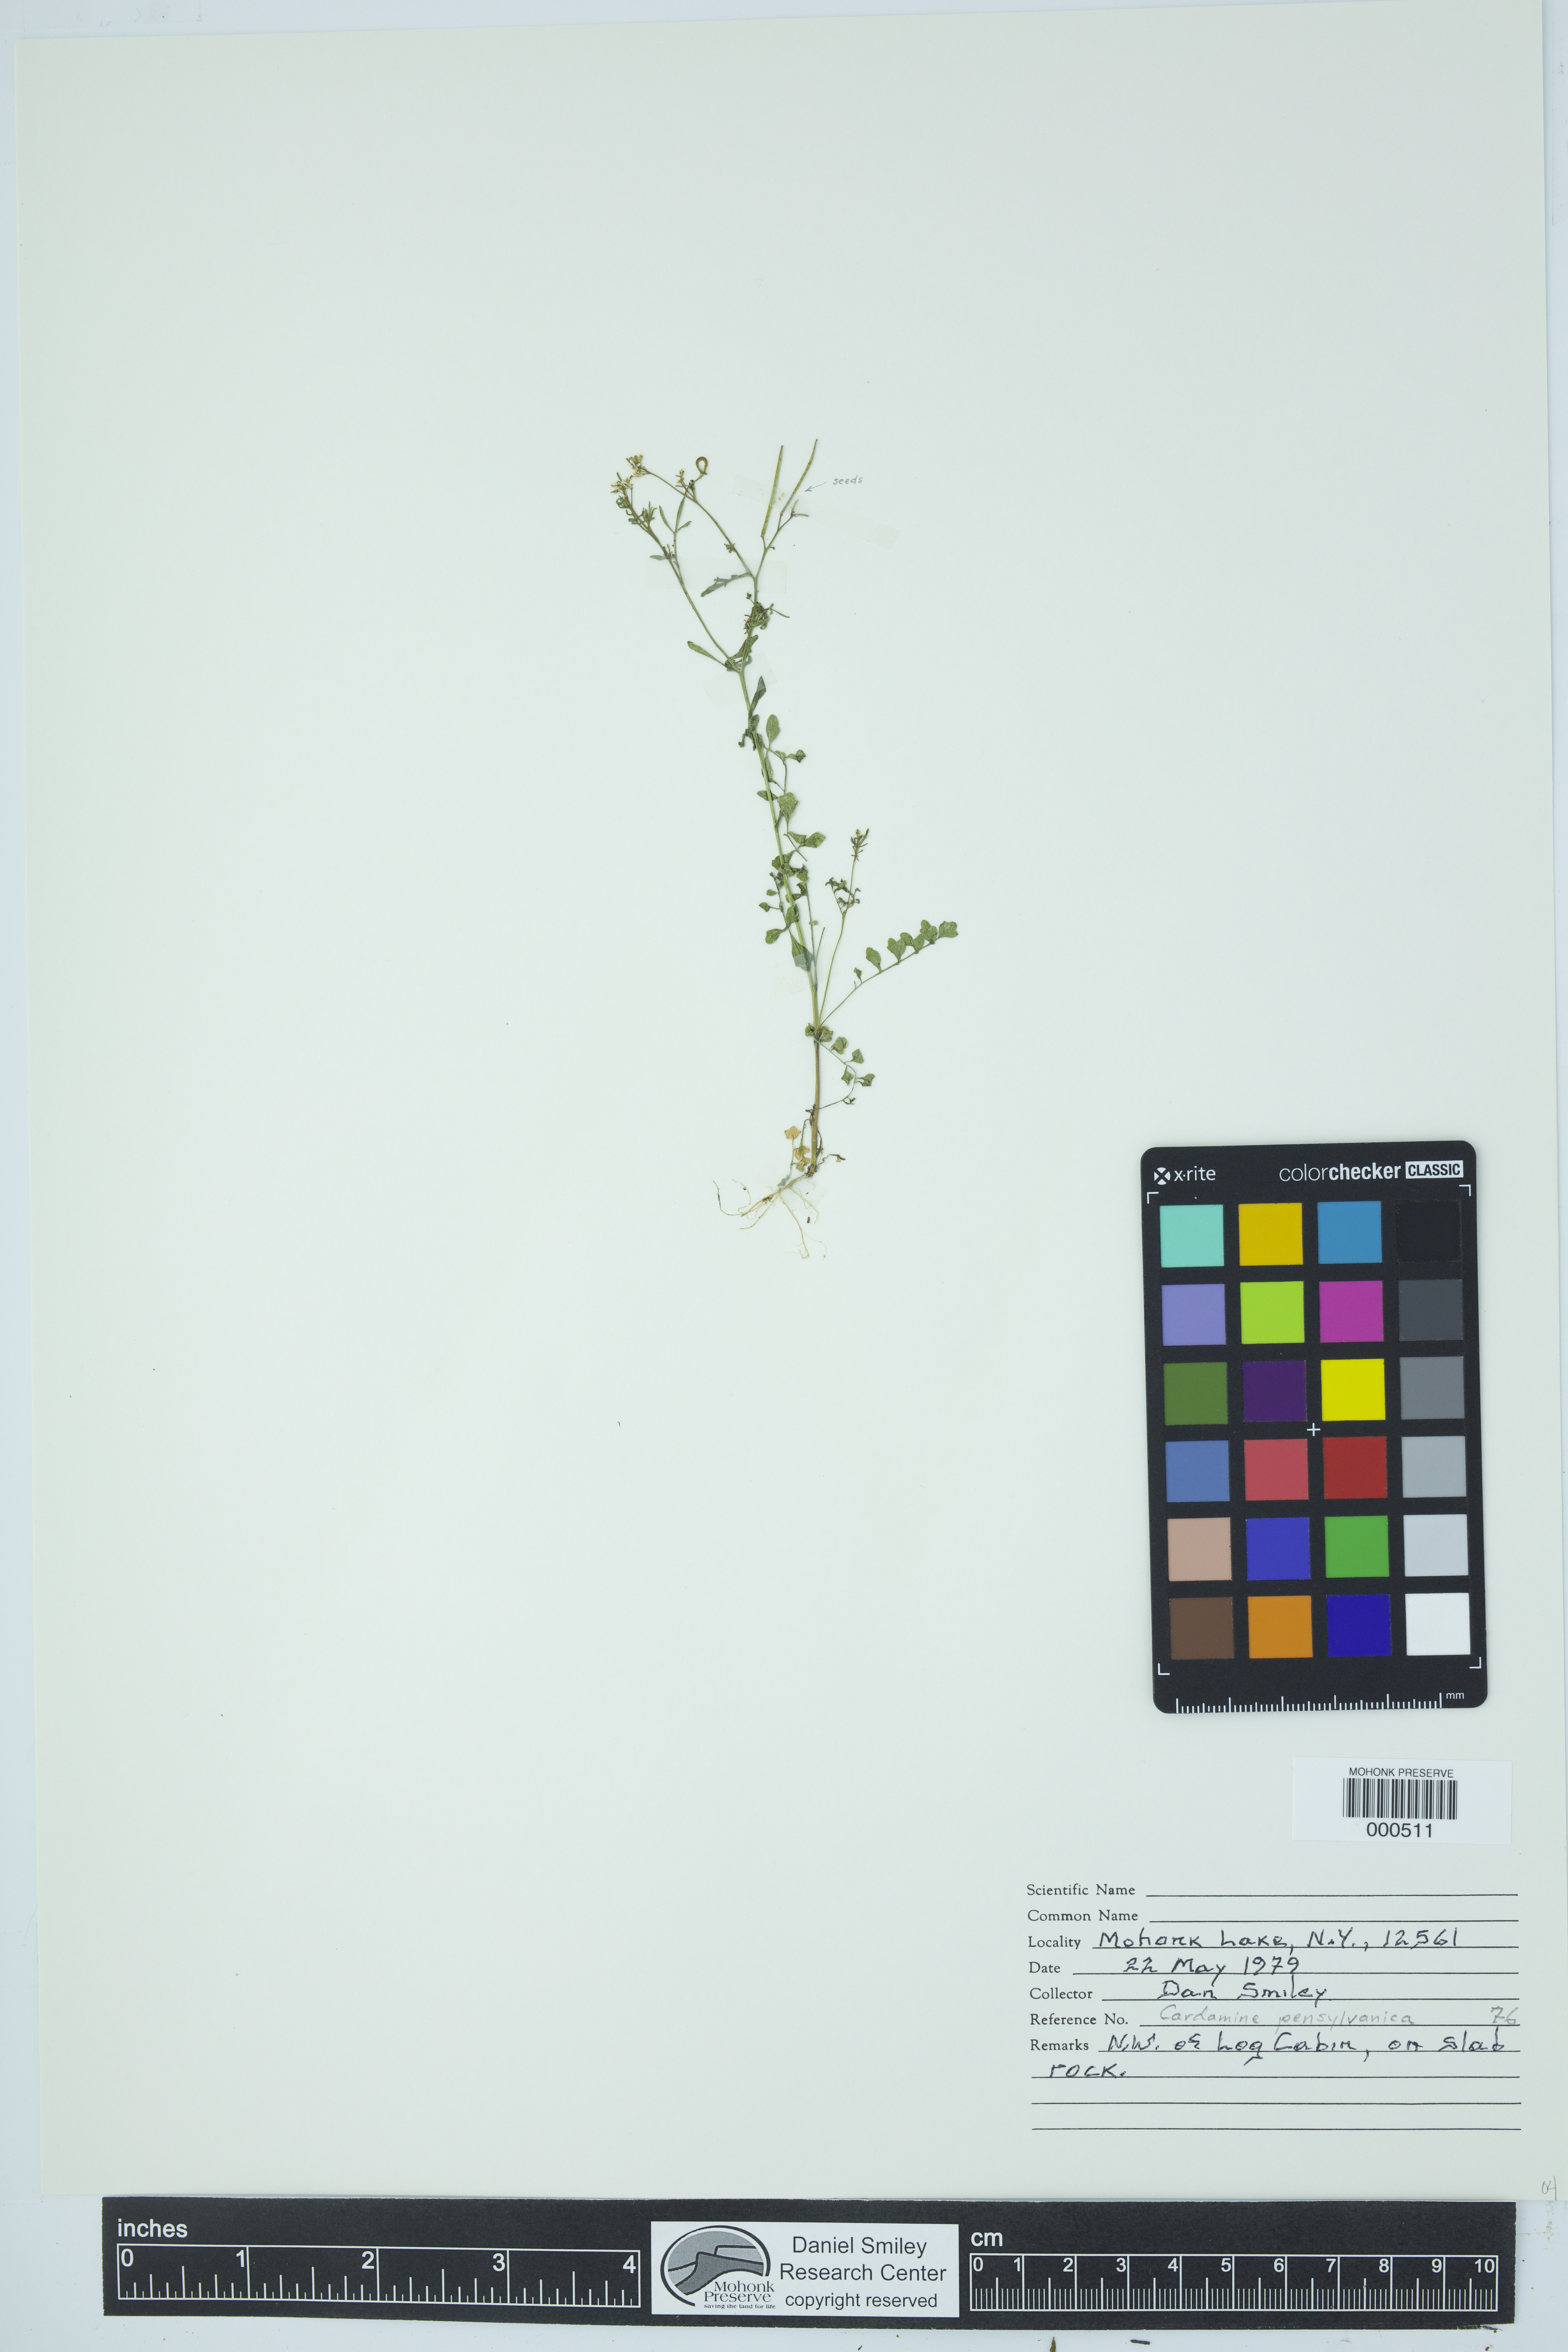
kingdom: Plantae
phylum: Tracheophyta
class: Magnoliopsida
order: Brassicales
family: Brassicaceae
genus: Cardamine
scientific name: Cardamine pensylvanica
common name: Pennsylvania bittercress
